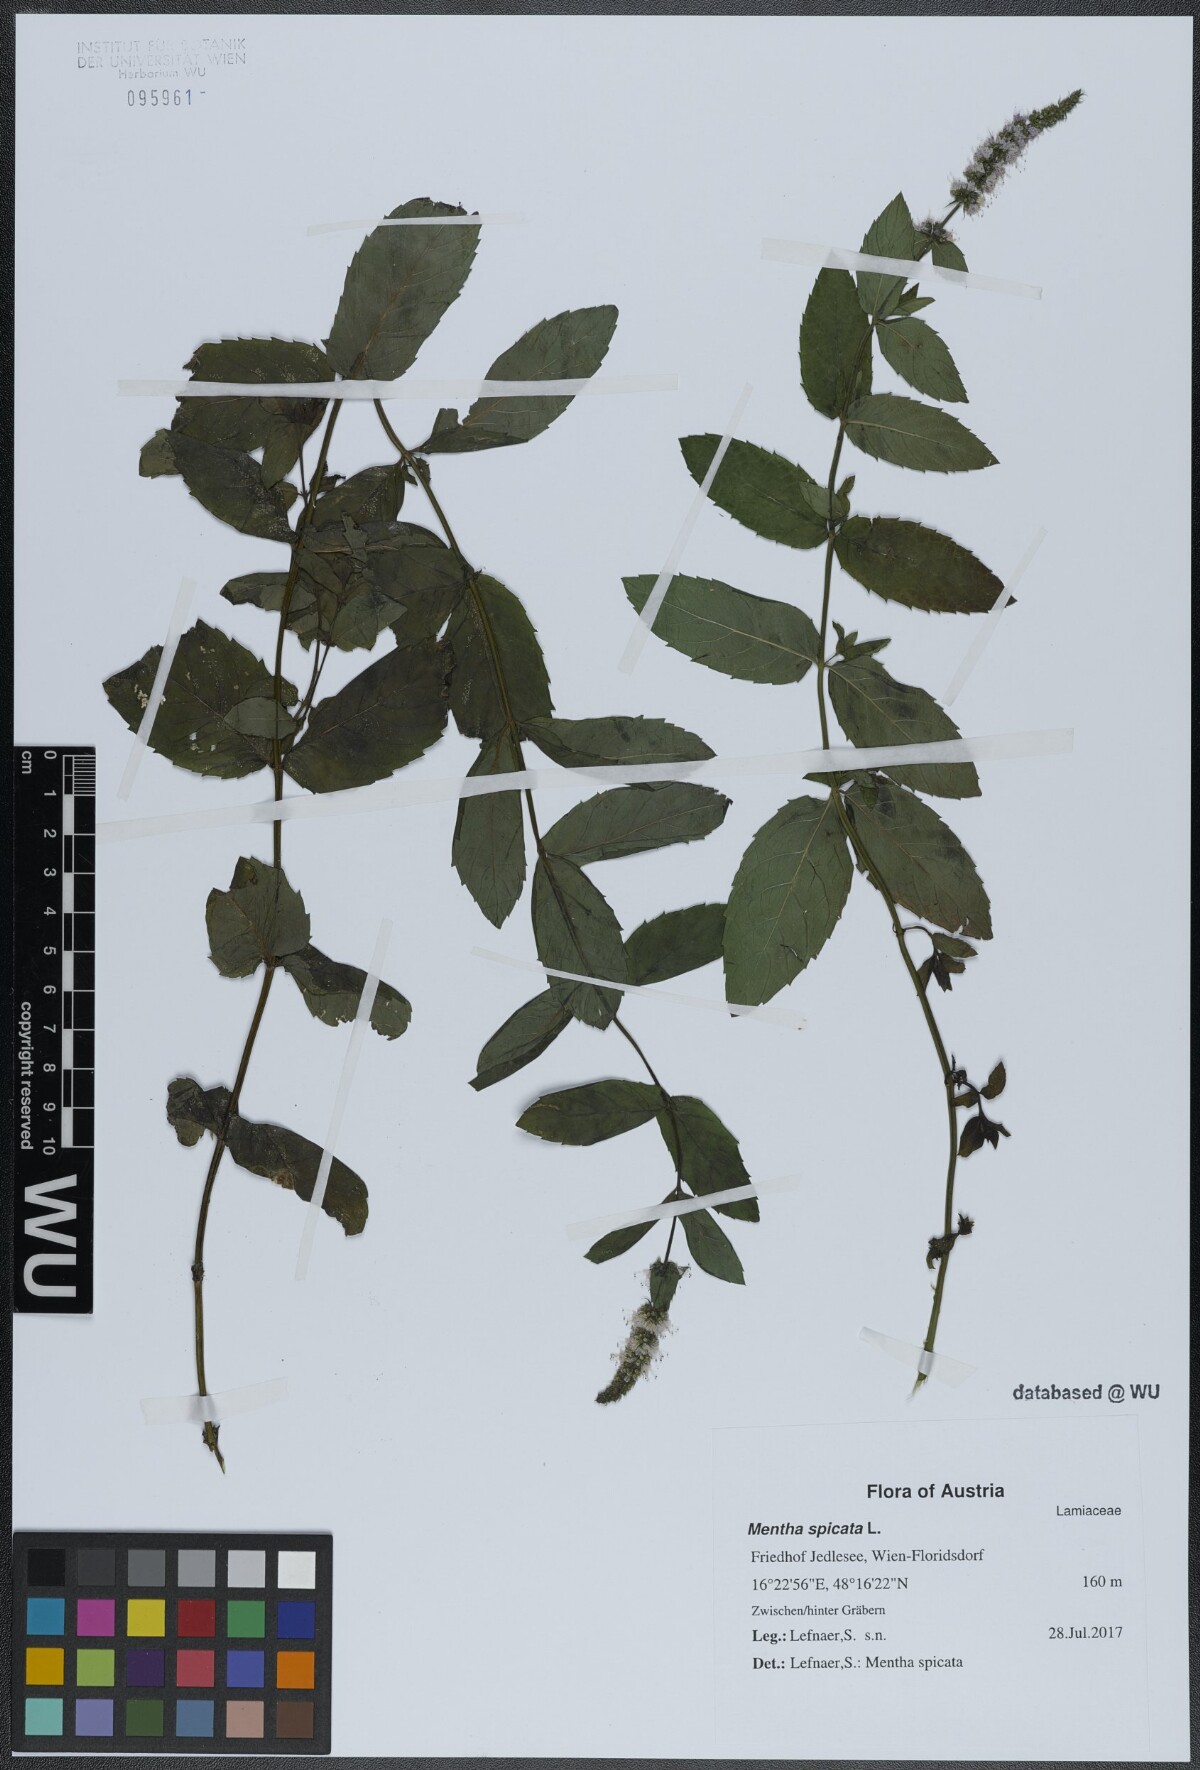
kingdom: Plantae
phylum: Tracheophyta
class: Magnoliopsida
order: Lamiales
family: Lamiaceae
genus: Mentha
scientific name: Mentha spicata
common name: Spearmint
